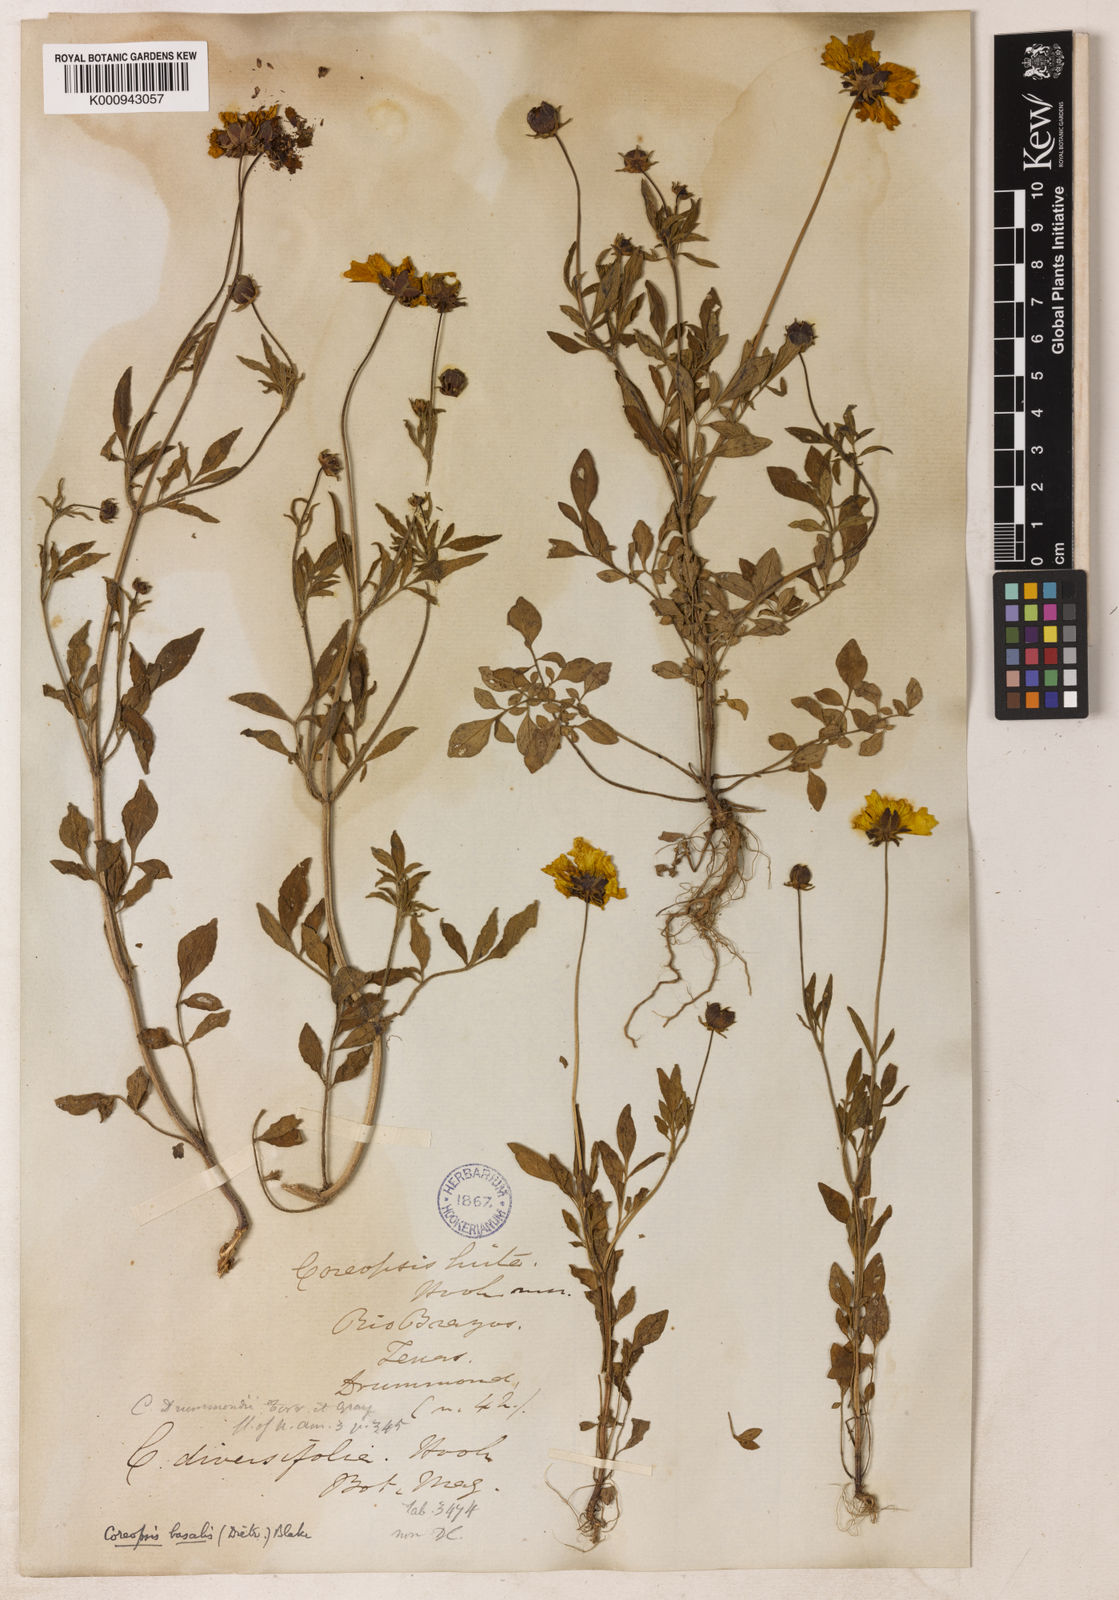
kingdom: Plantae
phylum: Tracheophyta
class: Magnoliopsida
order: Asterales
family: Asteraceae
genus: Coreopsis
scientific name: Coreopsis basalis
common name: Golden-mane coreopsis
